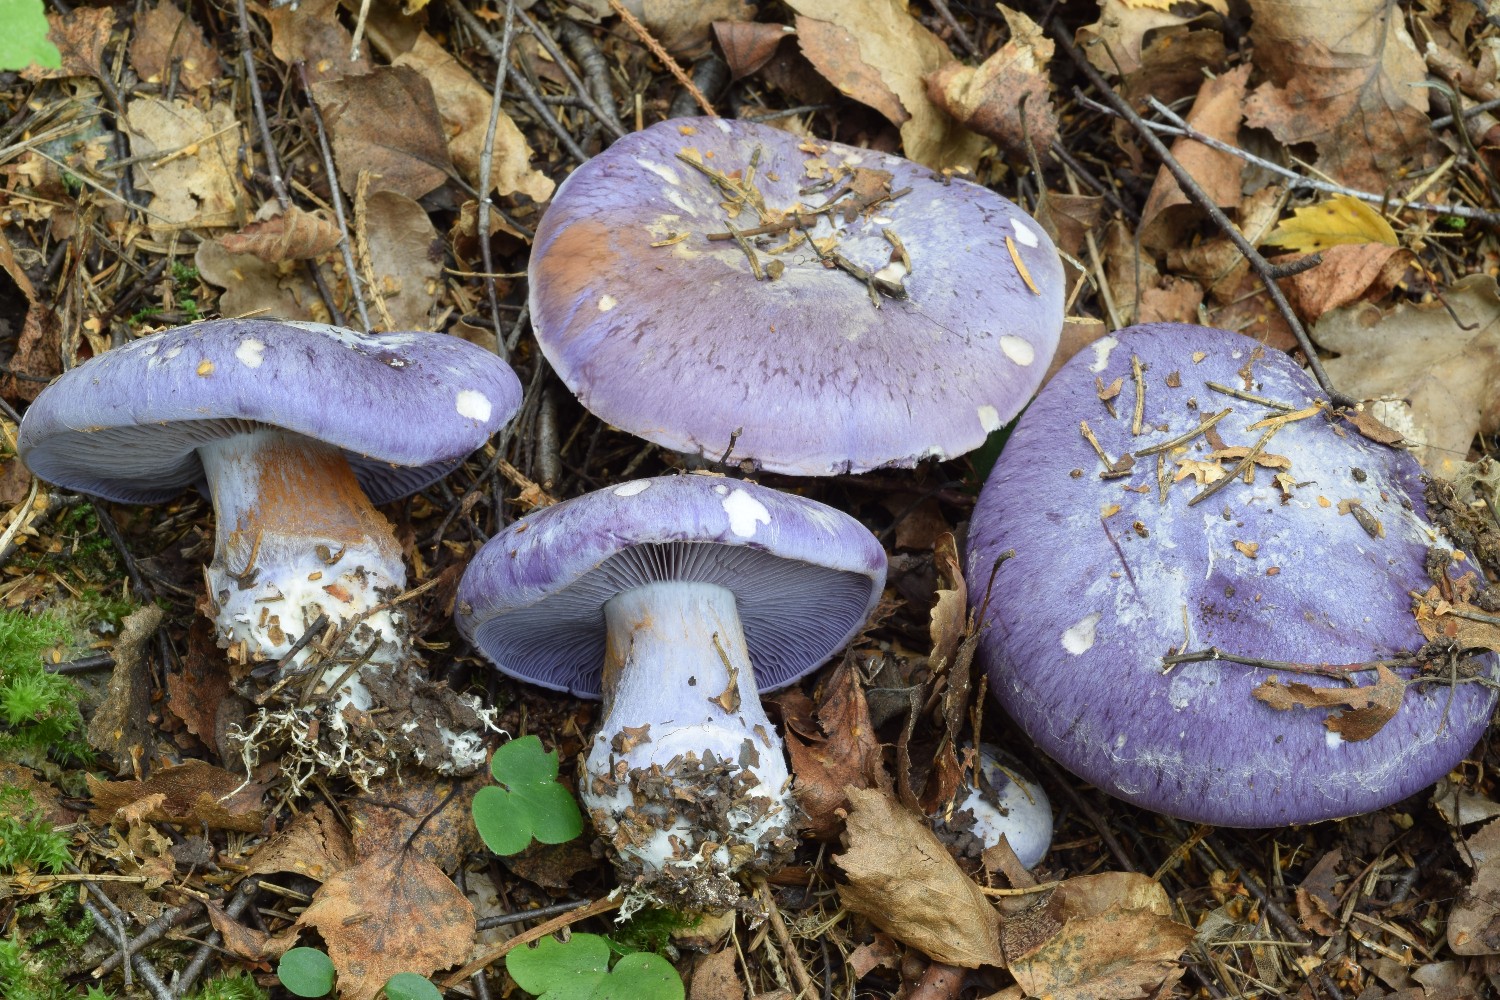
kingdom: Fungi
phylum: Basidiomycota
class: Agaricomycetes
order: Agaricales
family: Cortinariaceae
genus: Phlegmacium
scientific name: Phlegmacium eucaeruleum
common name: indigo-slørhat
